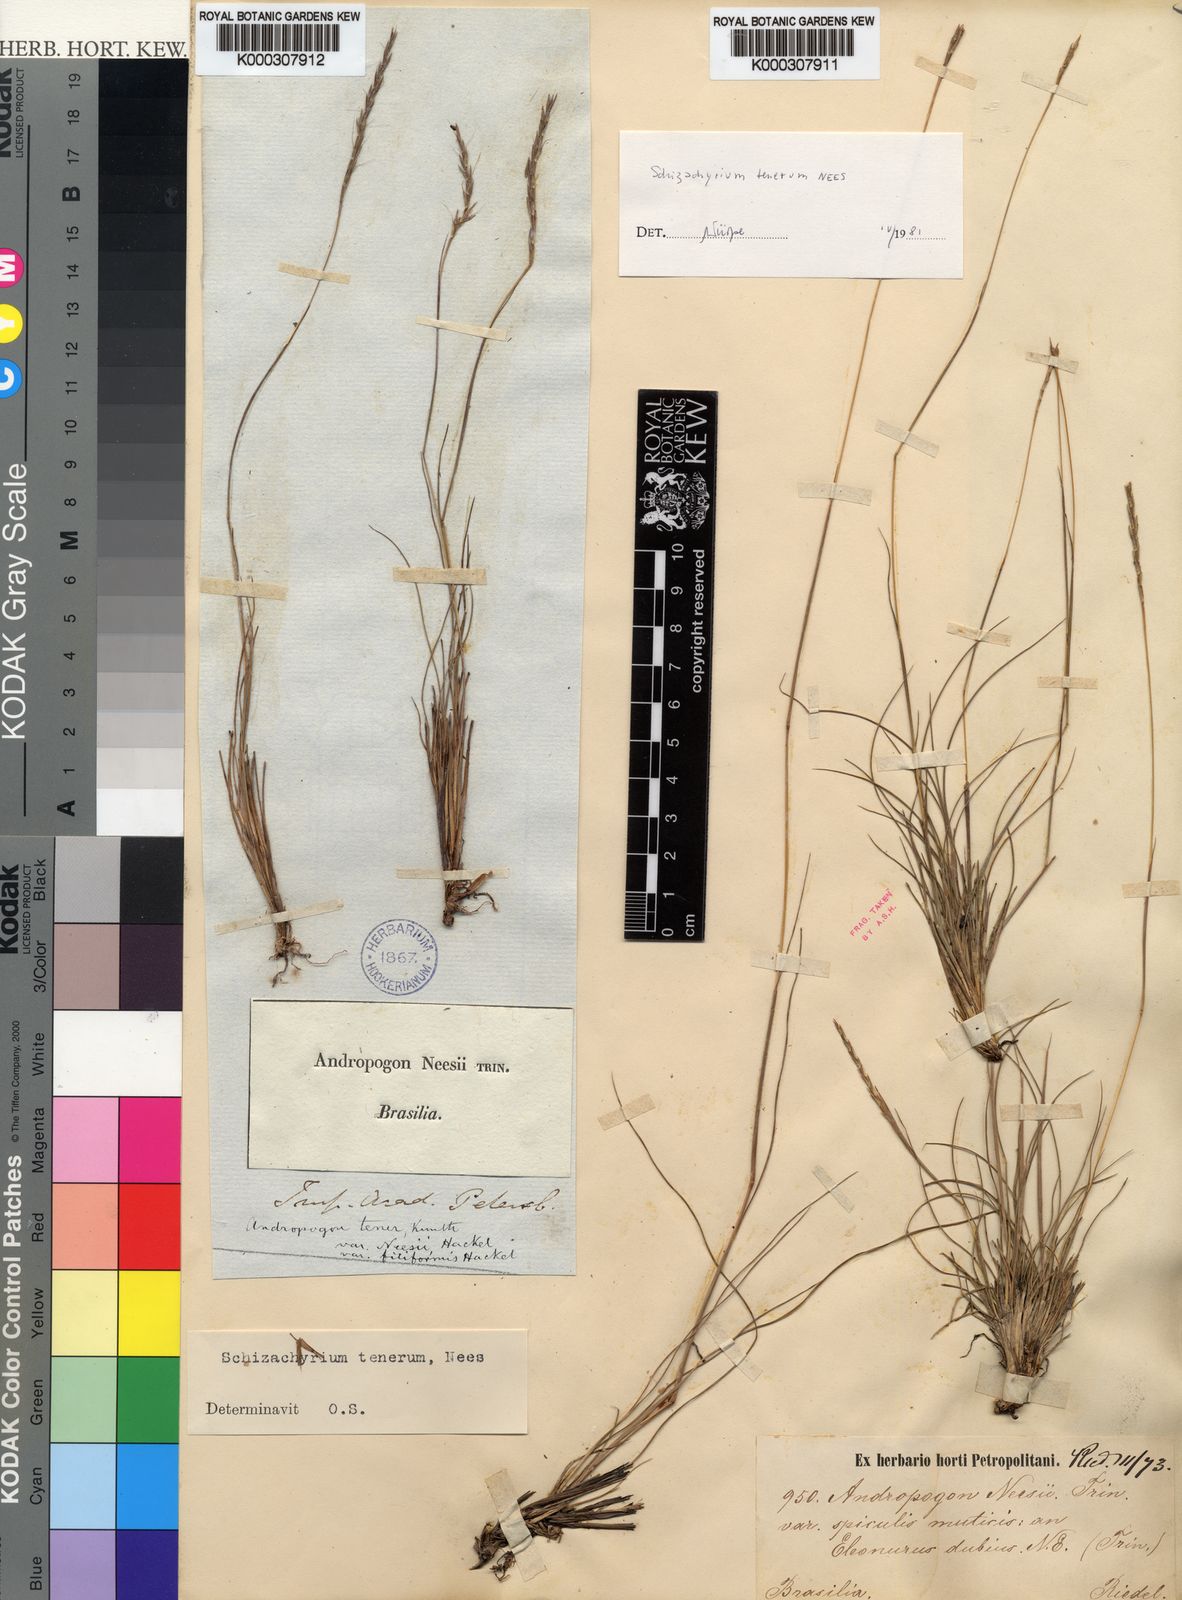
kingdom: Plantae
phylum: Tracheophyta
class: Liliopsida
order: Poales
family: Poaceae
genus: Andropogon
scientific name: Andropogon tener
